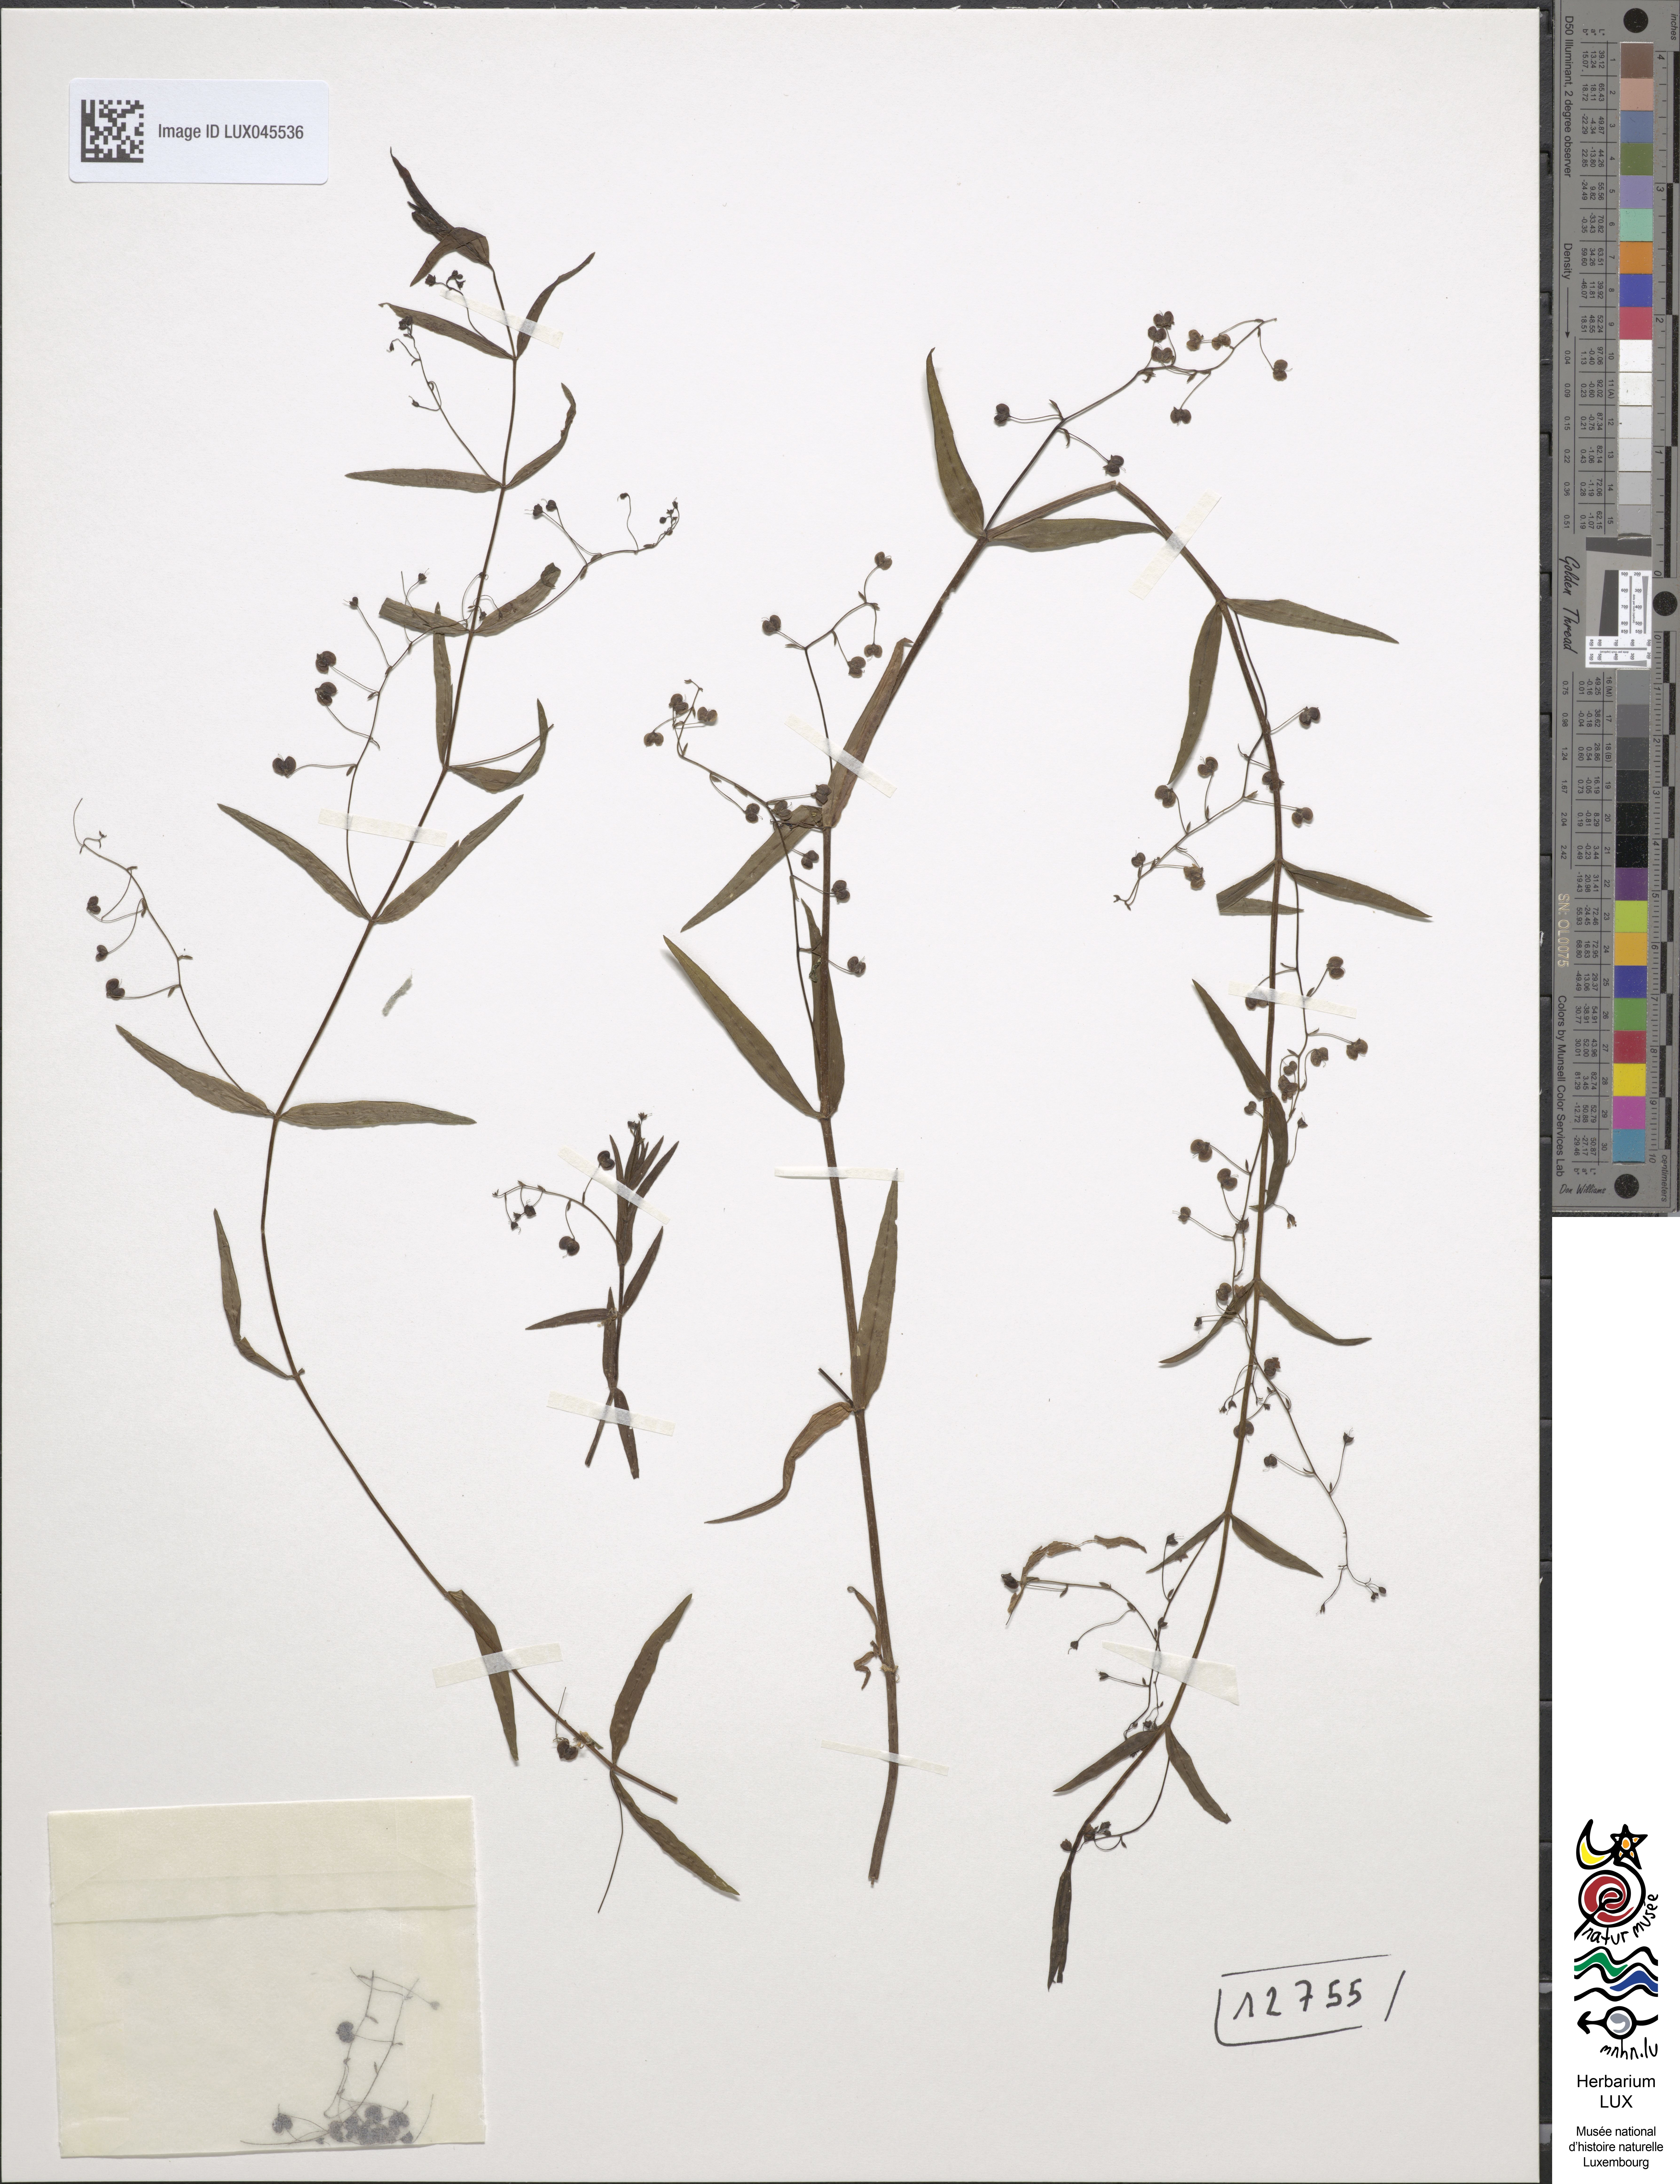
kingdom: Plantae
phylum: Tracheophyta
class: Magnoliopsida
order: Lamiales
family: Plantaginaceae
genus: Veronica
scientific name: Veronica scutellata
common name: Marsh speedwell
